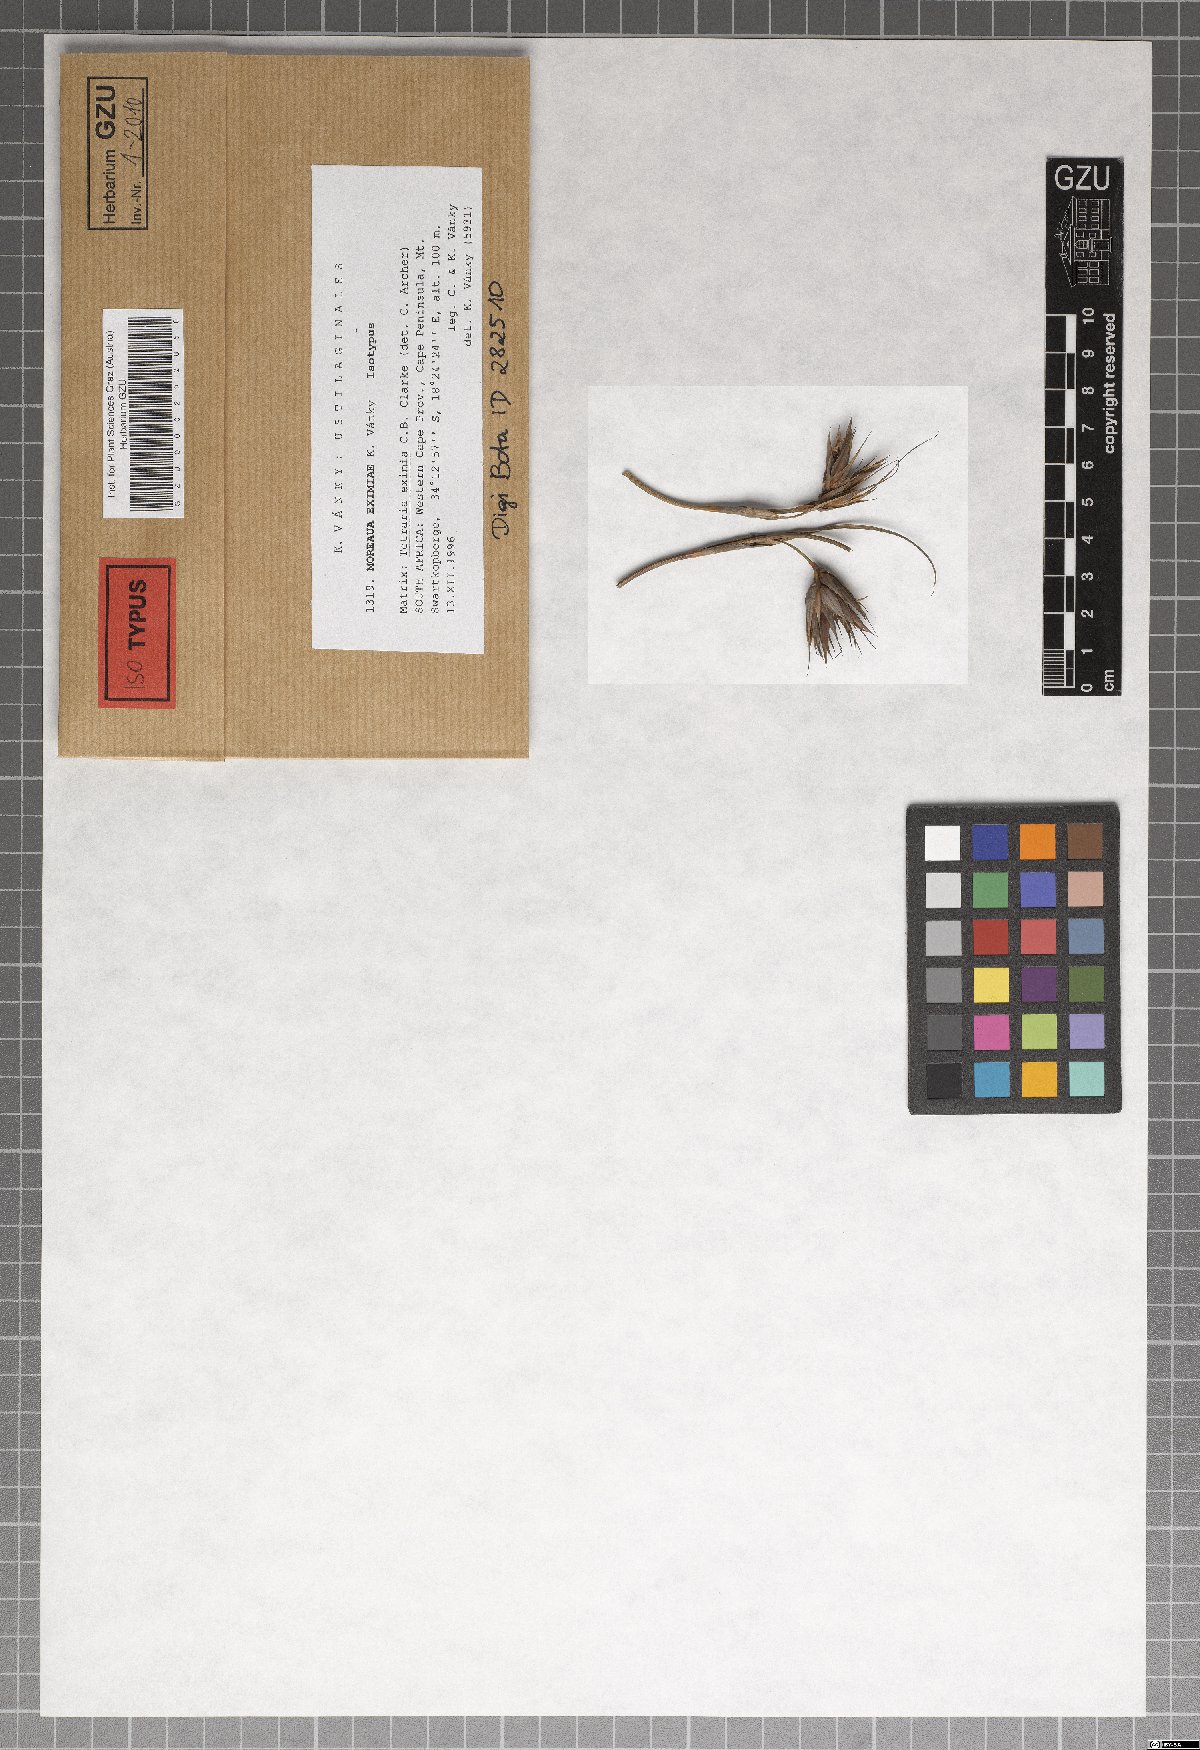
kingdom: Fungi
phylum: Basidiomycota
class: Ustilaginomycetes
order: Ustilaginales
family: Anthracoideaceae
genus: Moreaua
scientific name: Moreaua eximiae
